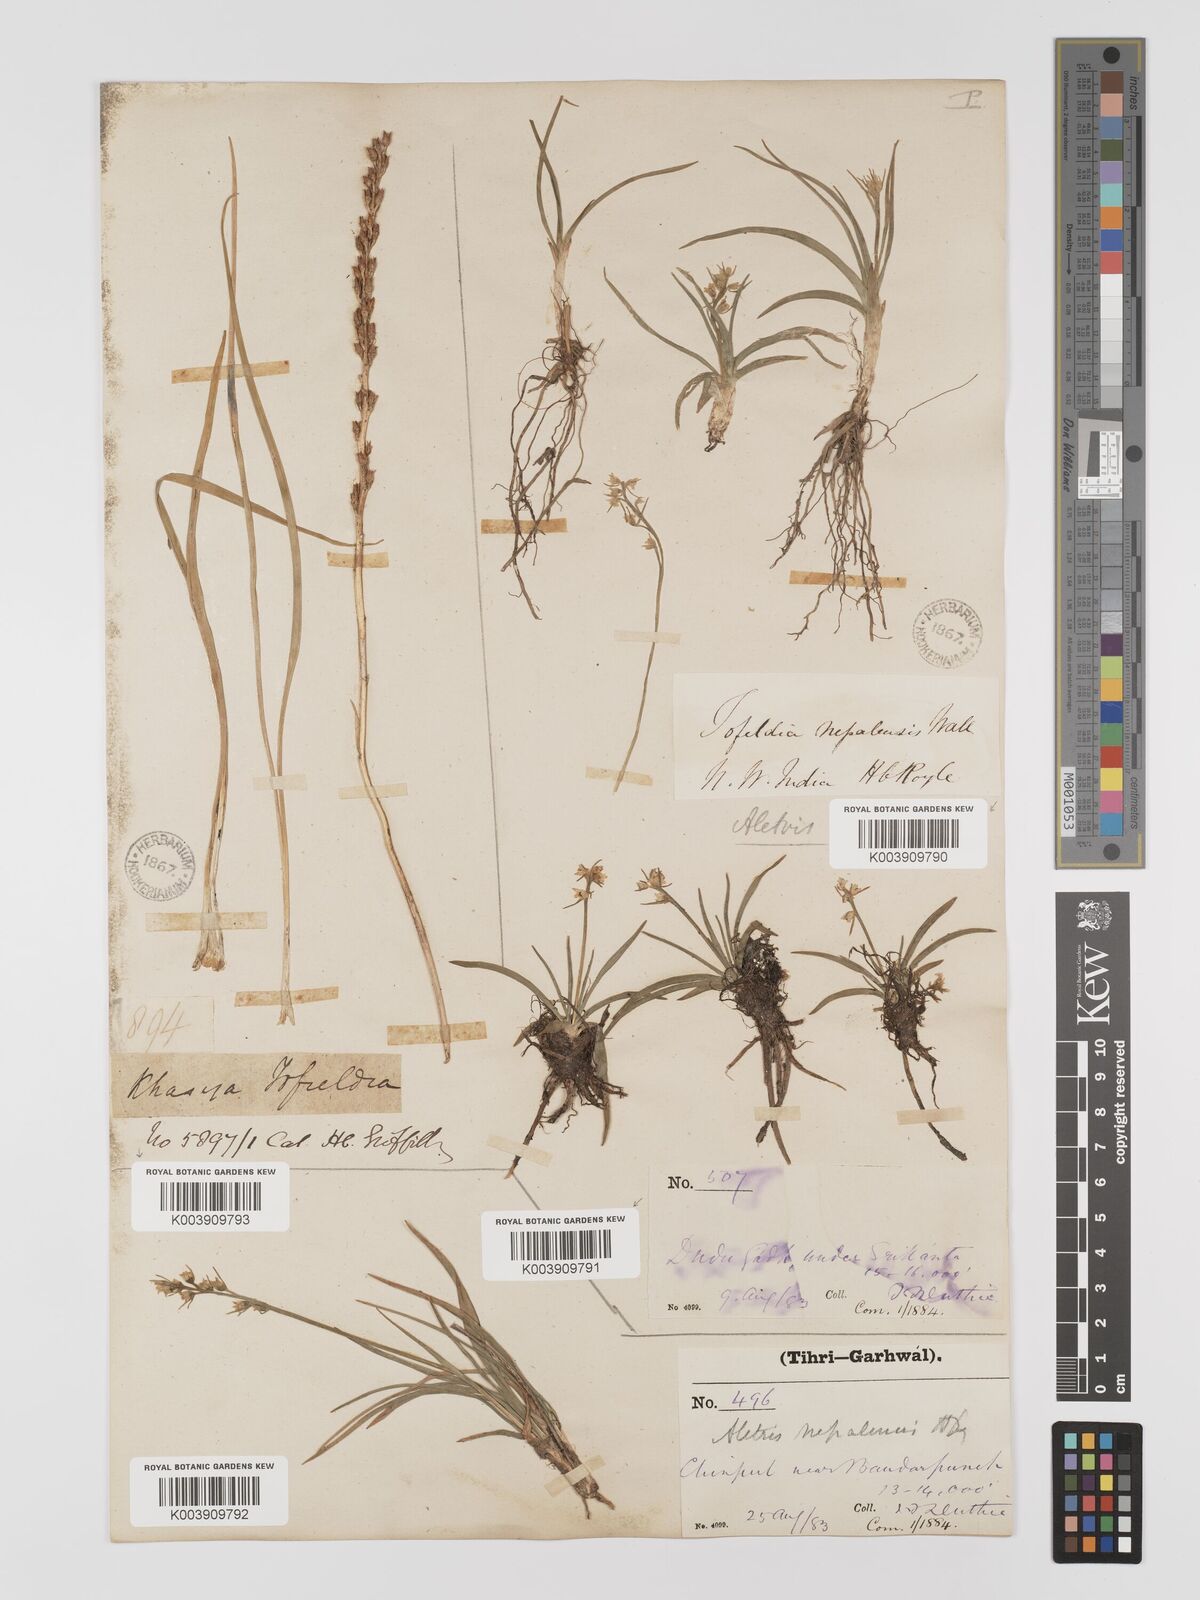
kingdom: Plantae
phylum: Tracheophyta
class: Liliopsida
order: Dioscoreales
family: Nartheciaceae
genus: Aletris
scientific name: Aletris pauciflora
